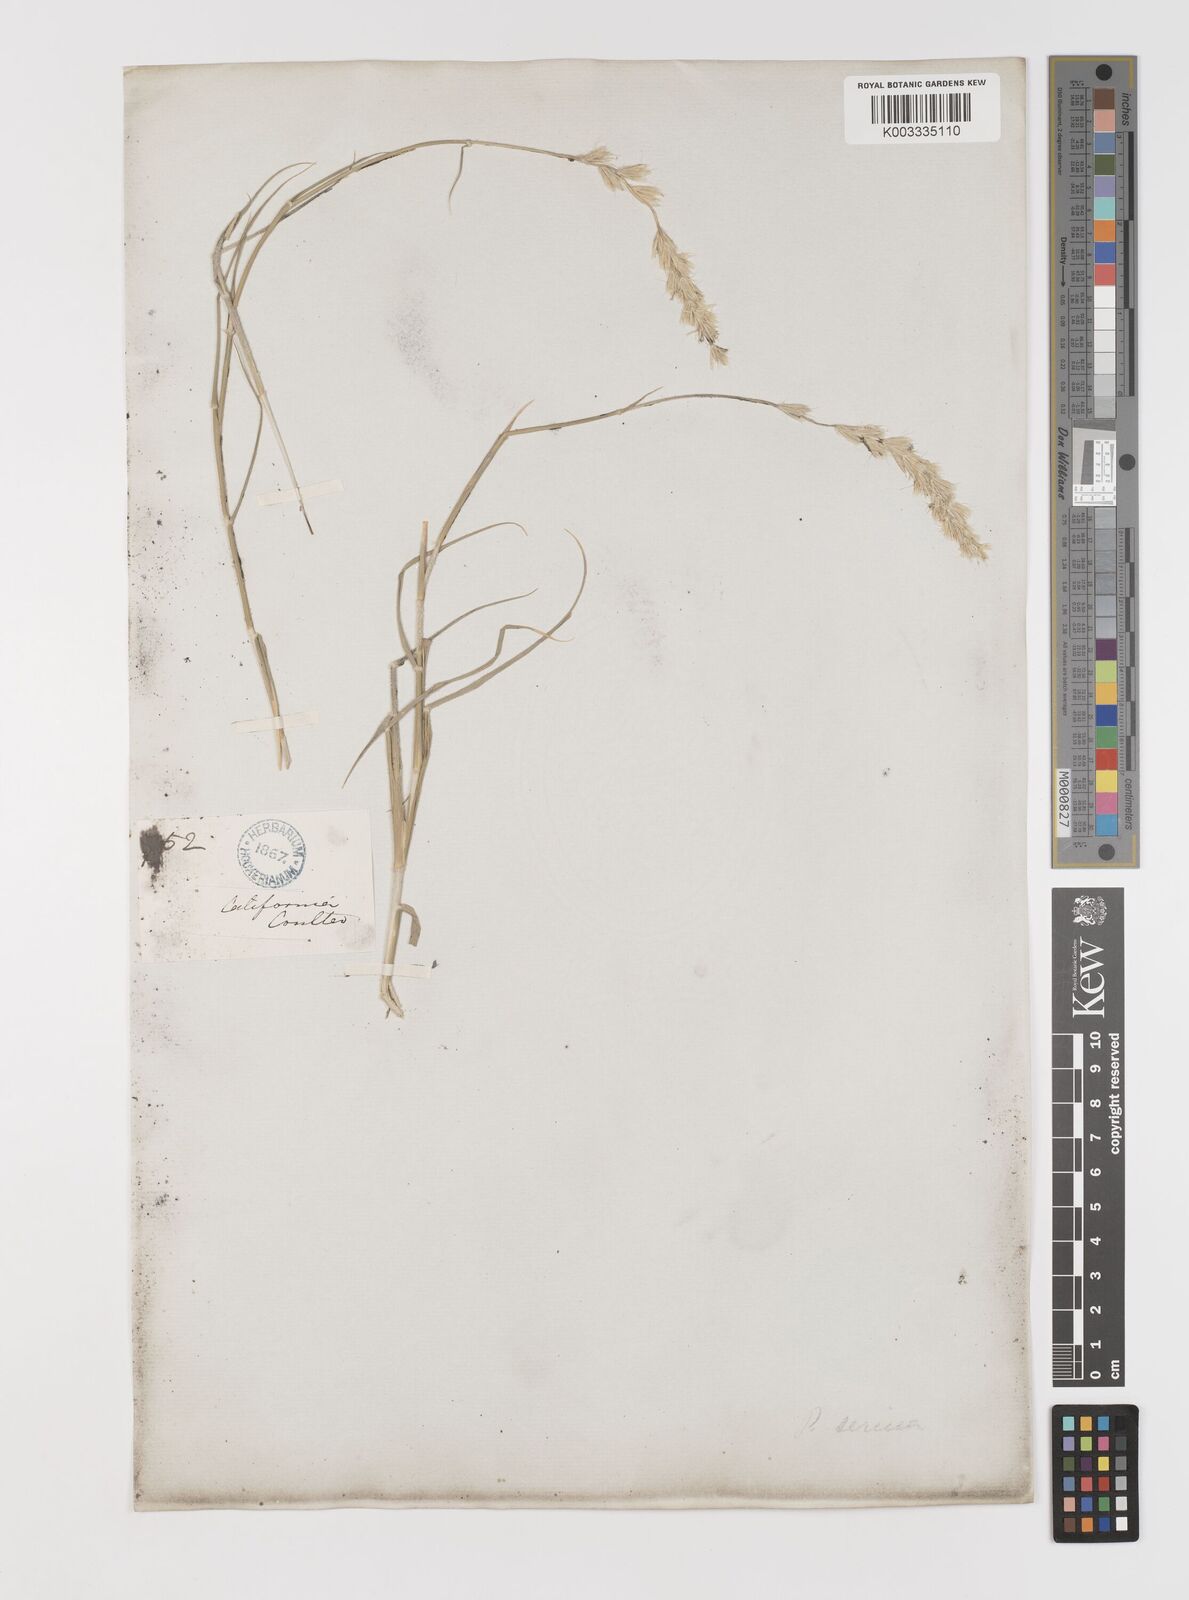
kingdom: Plantae
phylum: Tracheophyta
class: Liliopsida
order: Poales
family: Poaceae
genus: Hilaria
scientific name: Hilaria rigida
